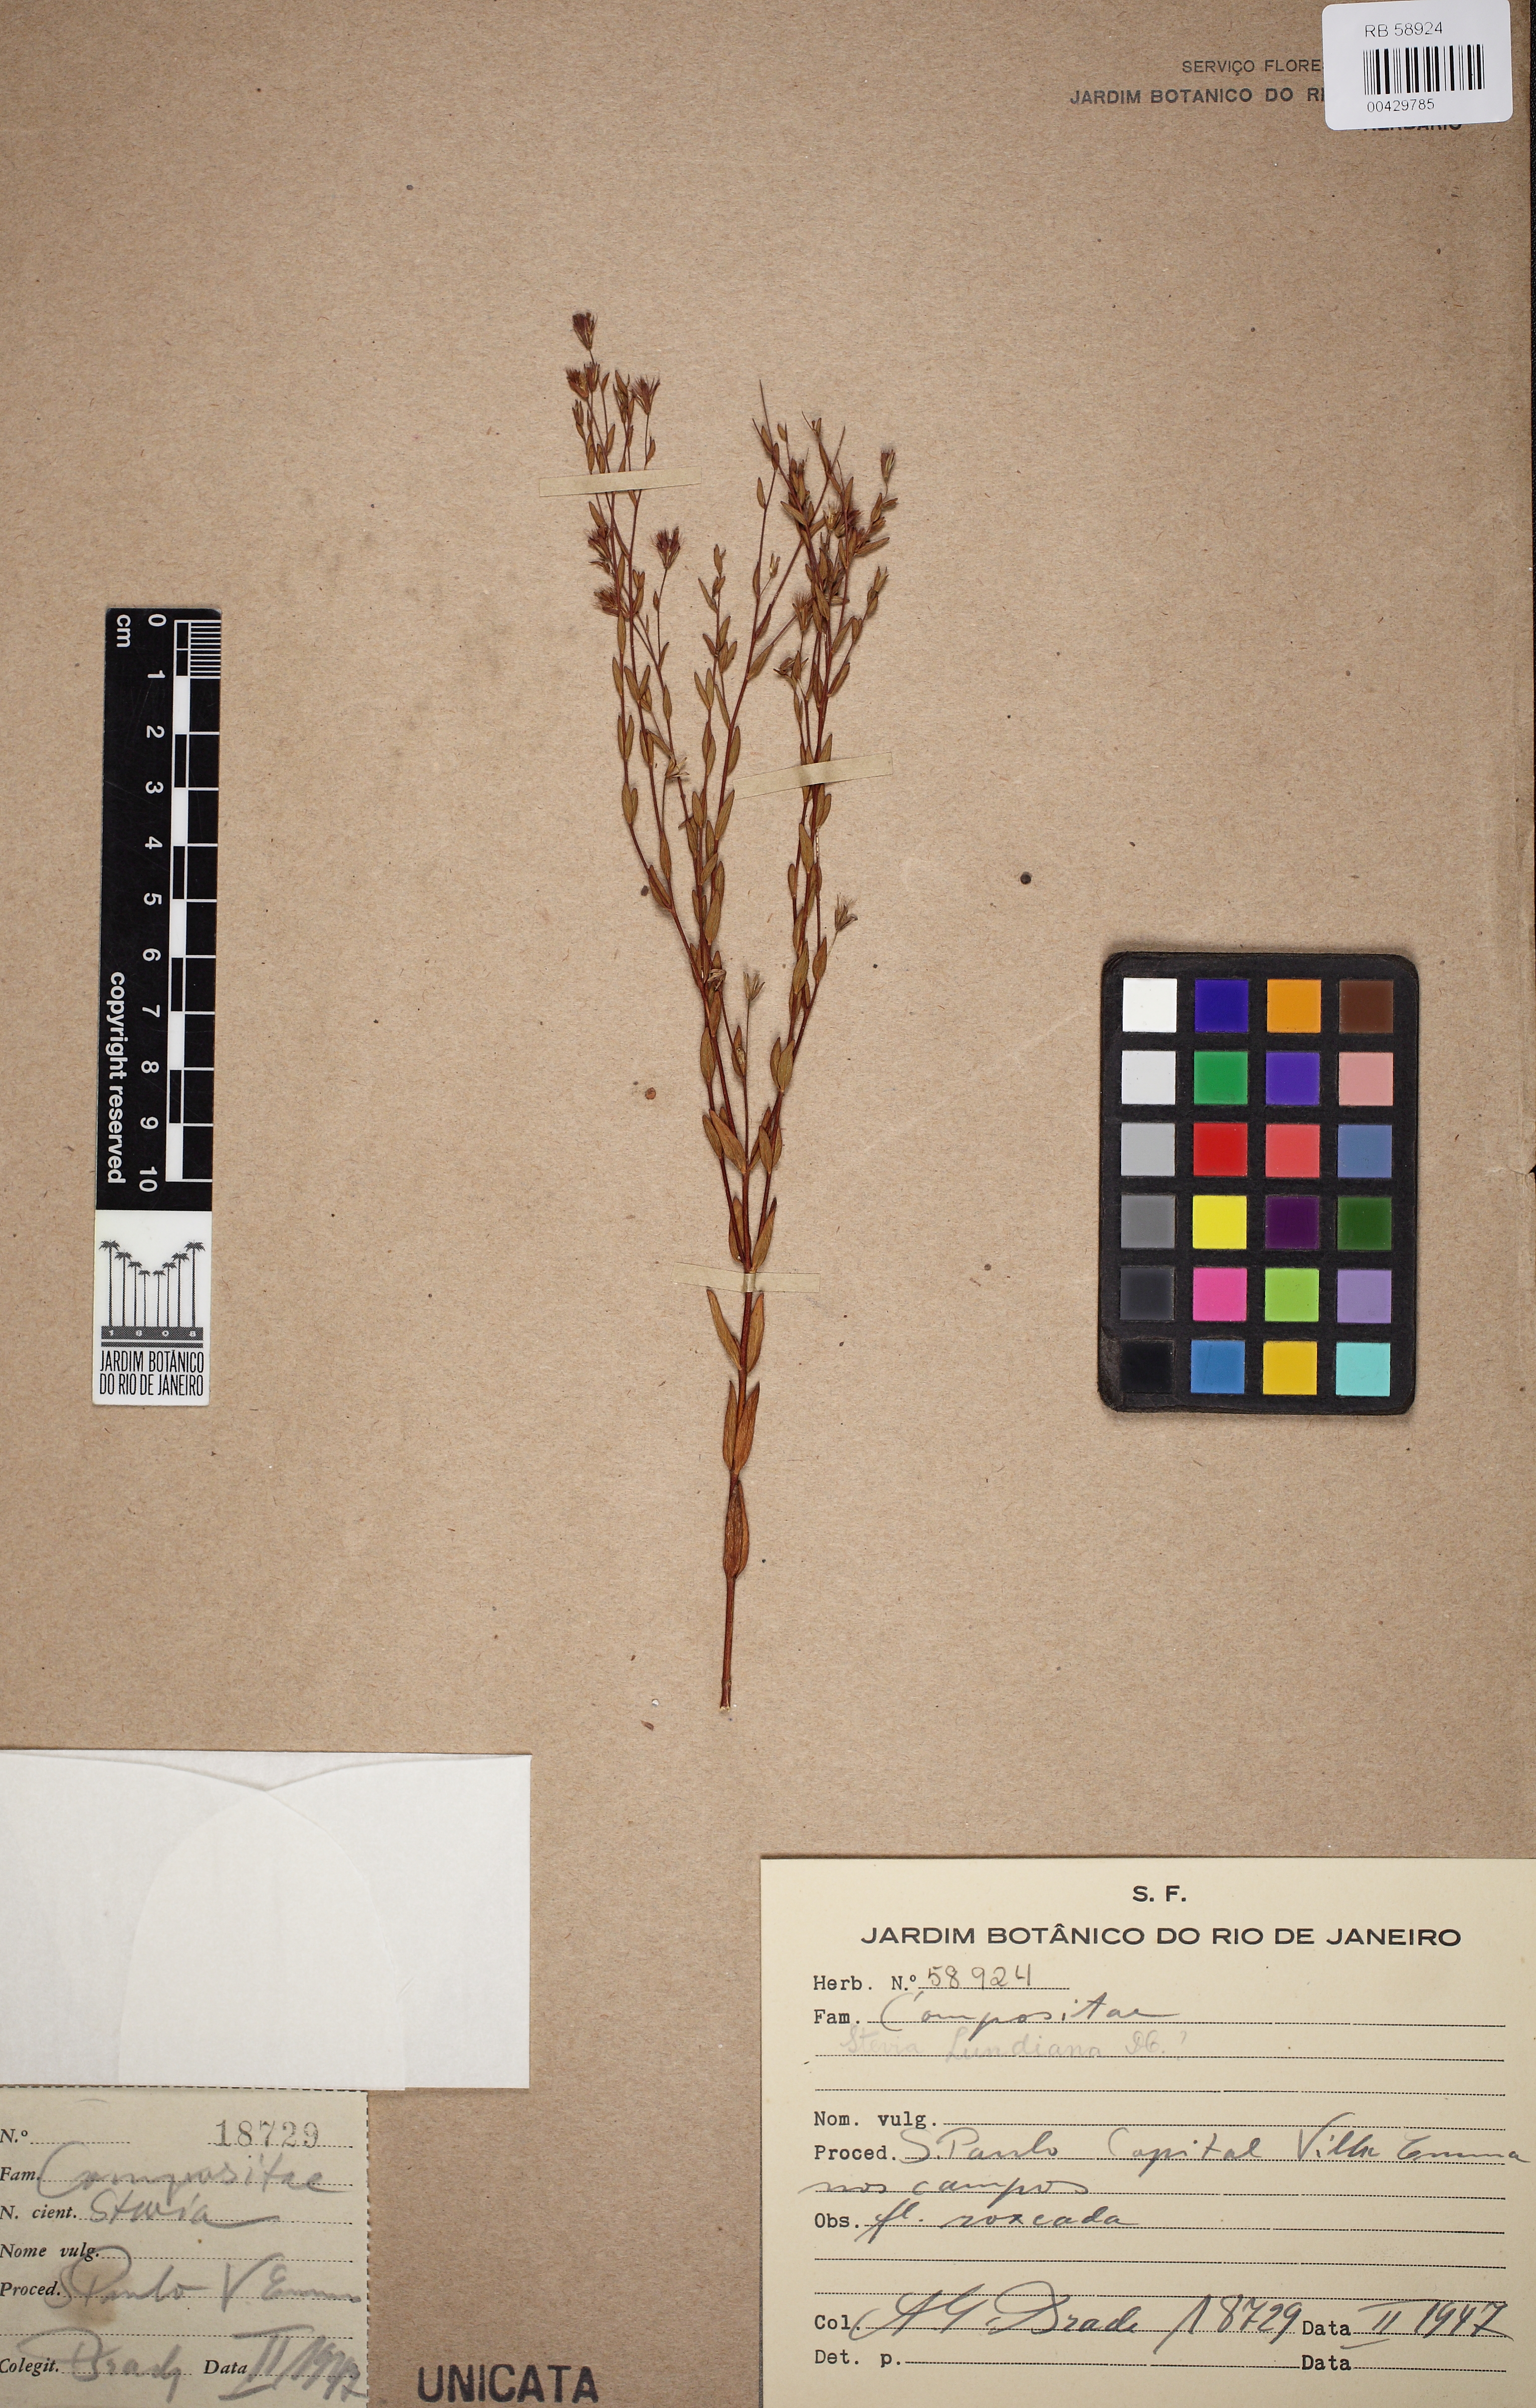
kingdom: Plantae
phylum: Tracheophyta
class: Magnoliopsida
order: Asterales
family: Asteraceae
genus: Stevia
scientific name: Stevia lundiana
